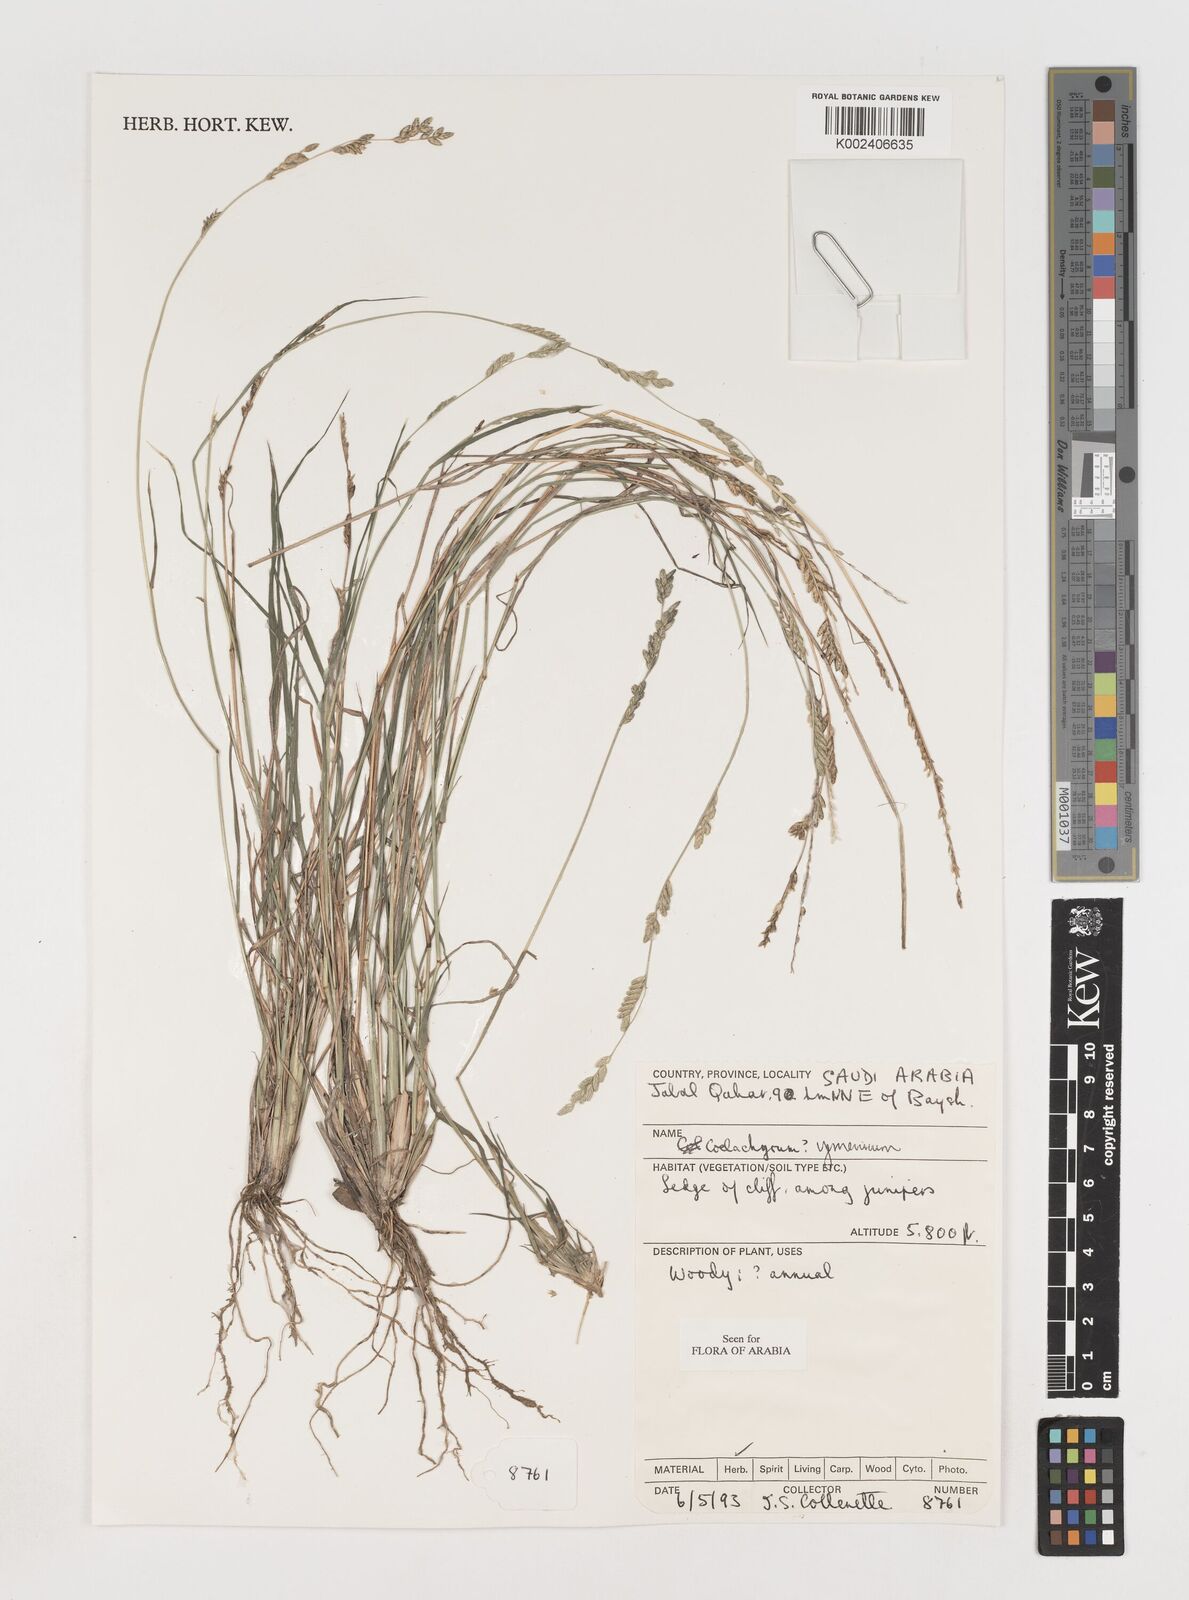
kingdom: Plantae
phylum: Tracheophyta
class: Liliopsida
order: Poales
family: Poaceae
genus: Disakisperma
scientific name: Disakisperma yemenicum
